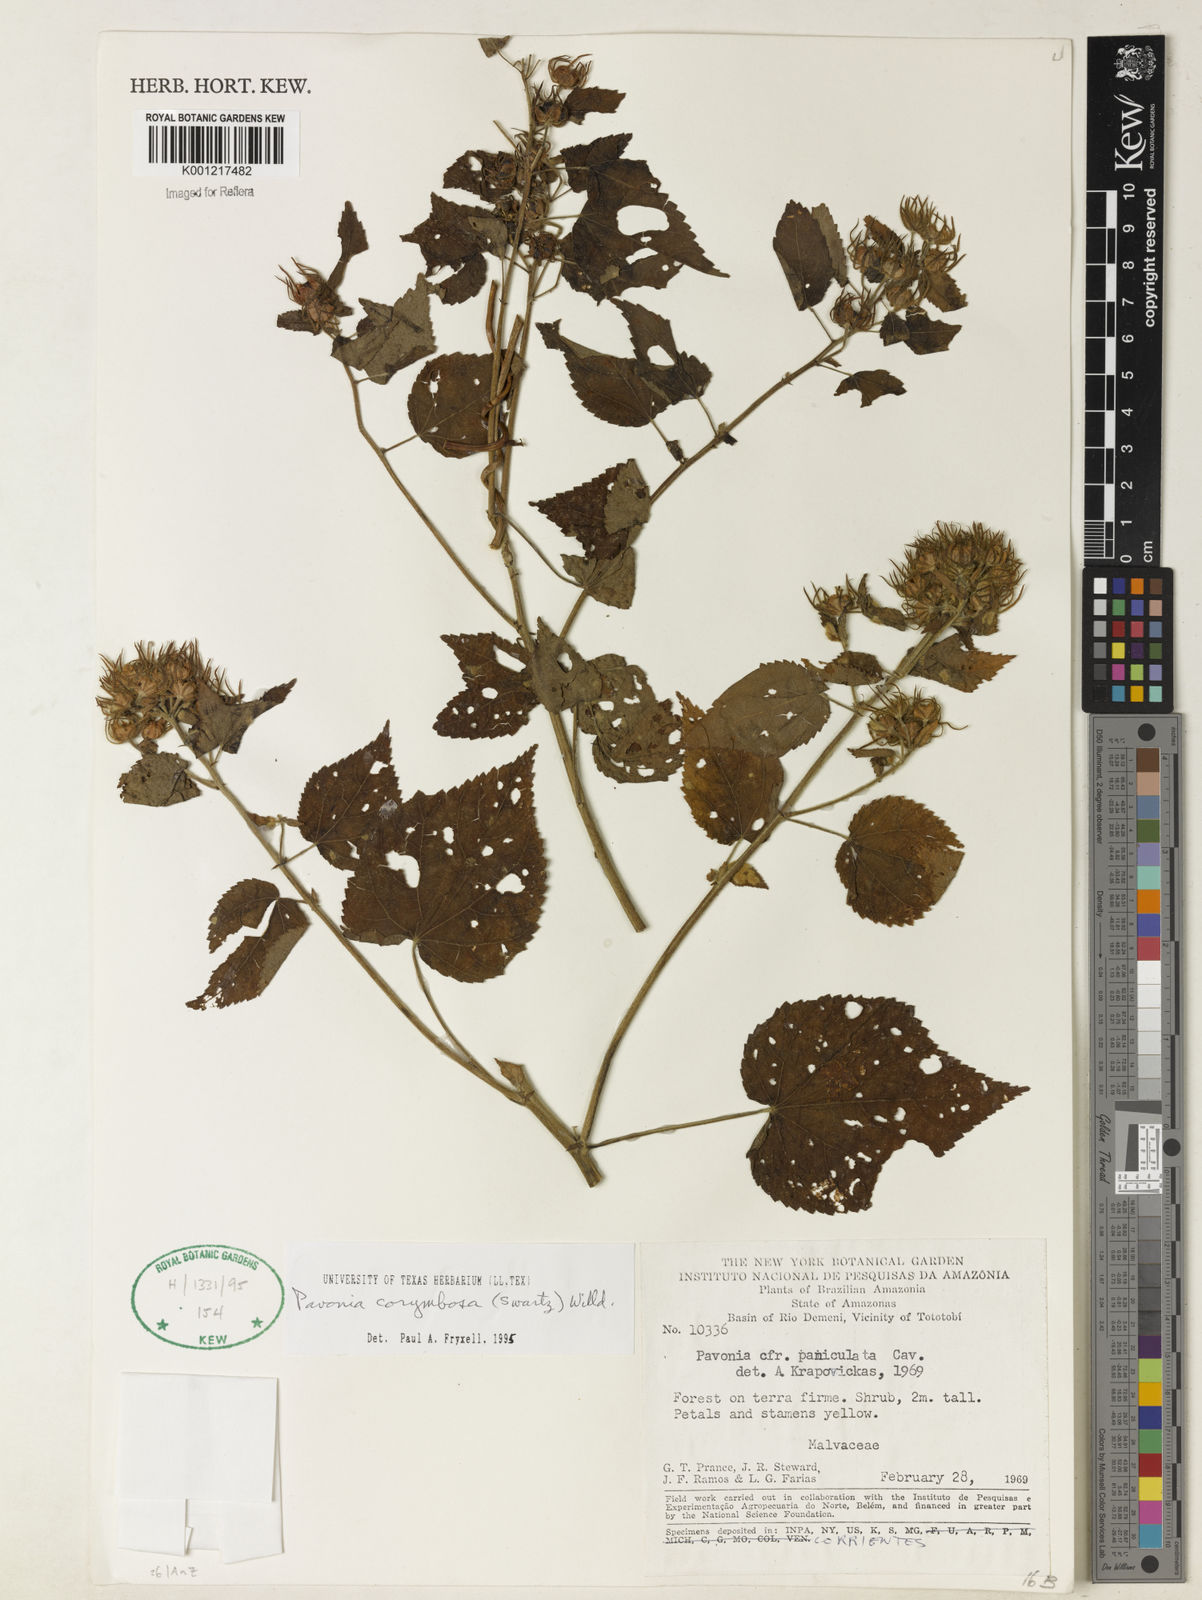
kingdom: Plantae
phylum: Tracheophyta
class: Magnoliopsida
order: Malvales
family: Malvaceae
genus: Pavonia
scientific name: Pavonia corymbosa
